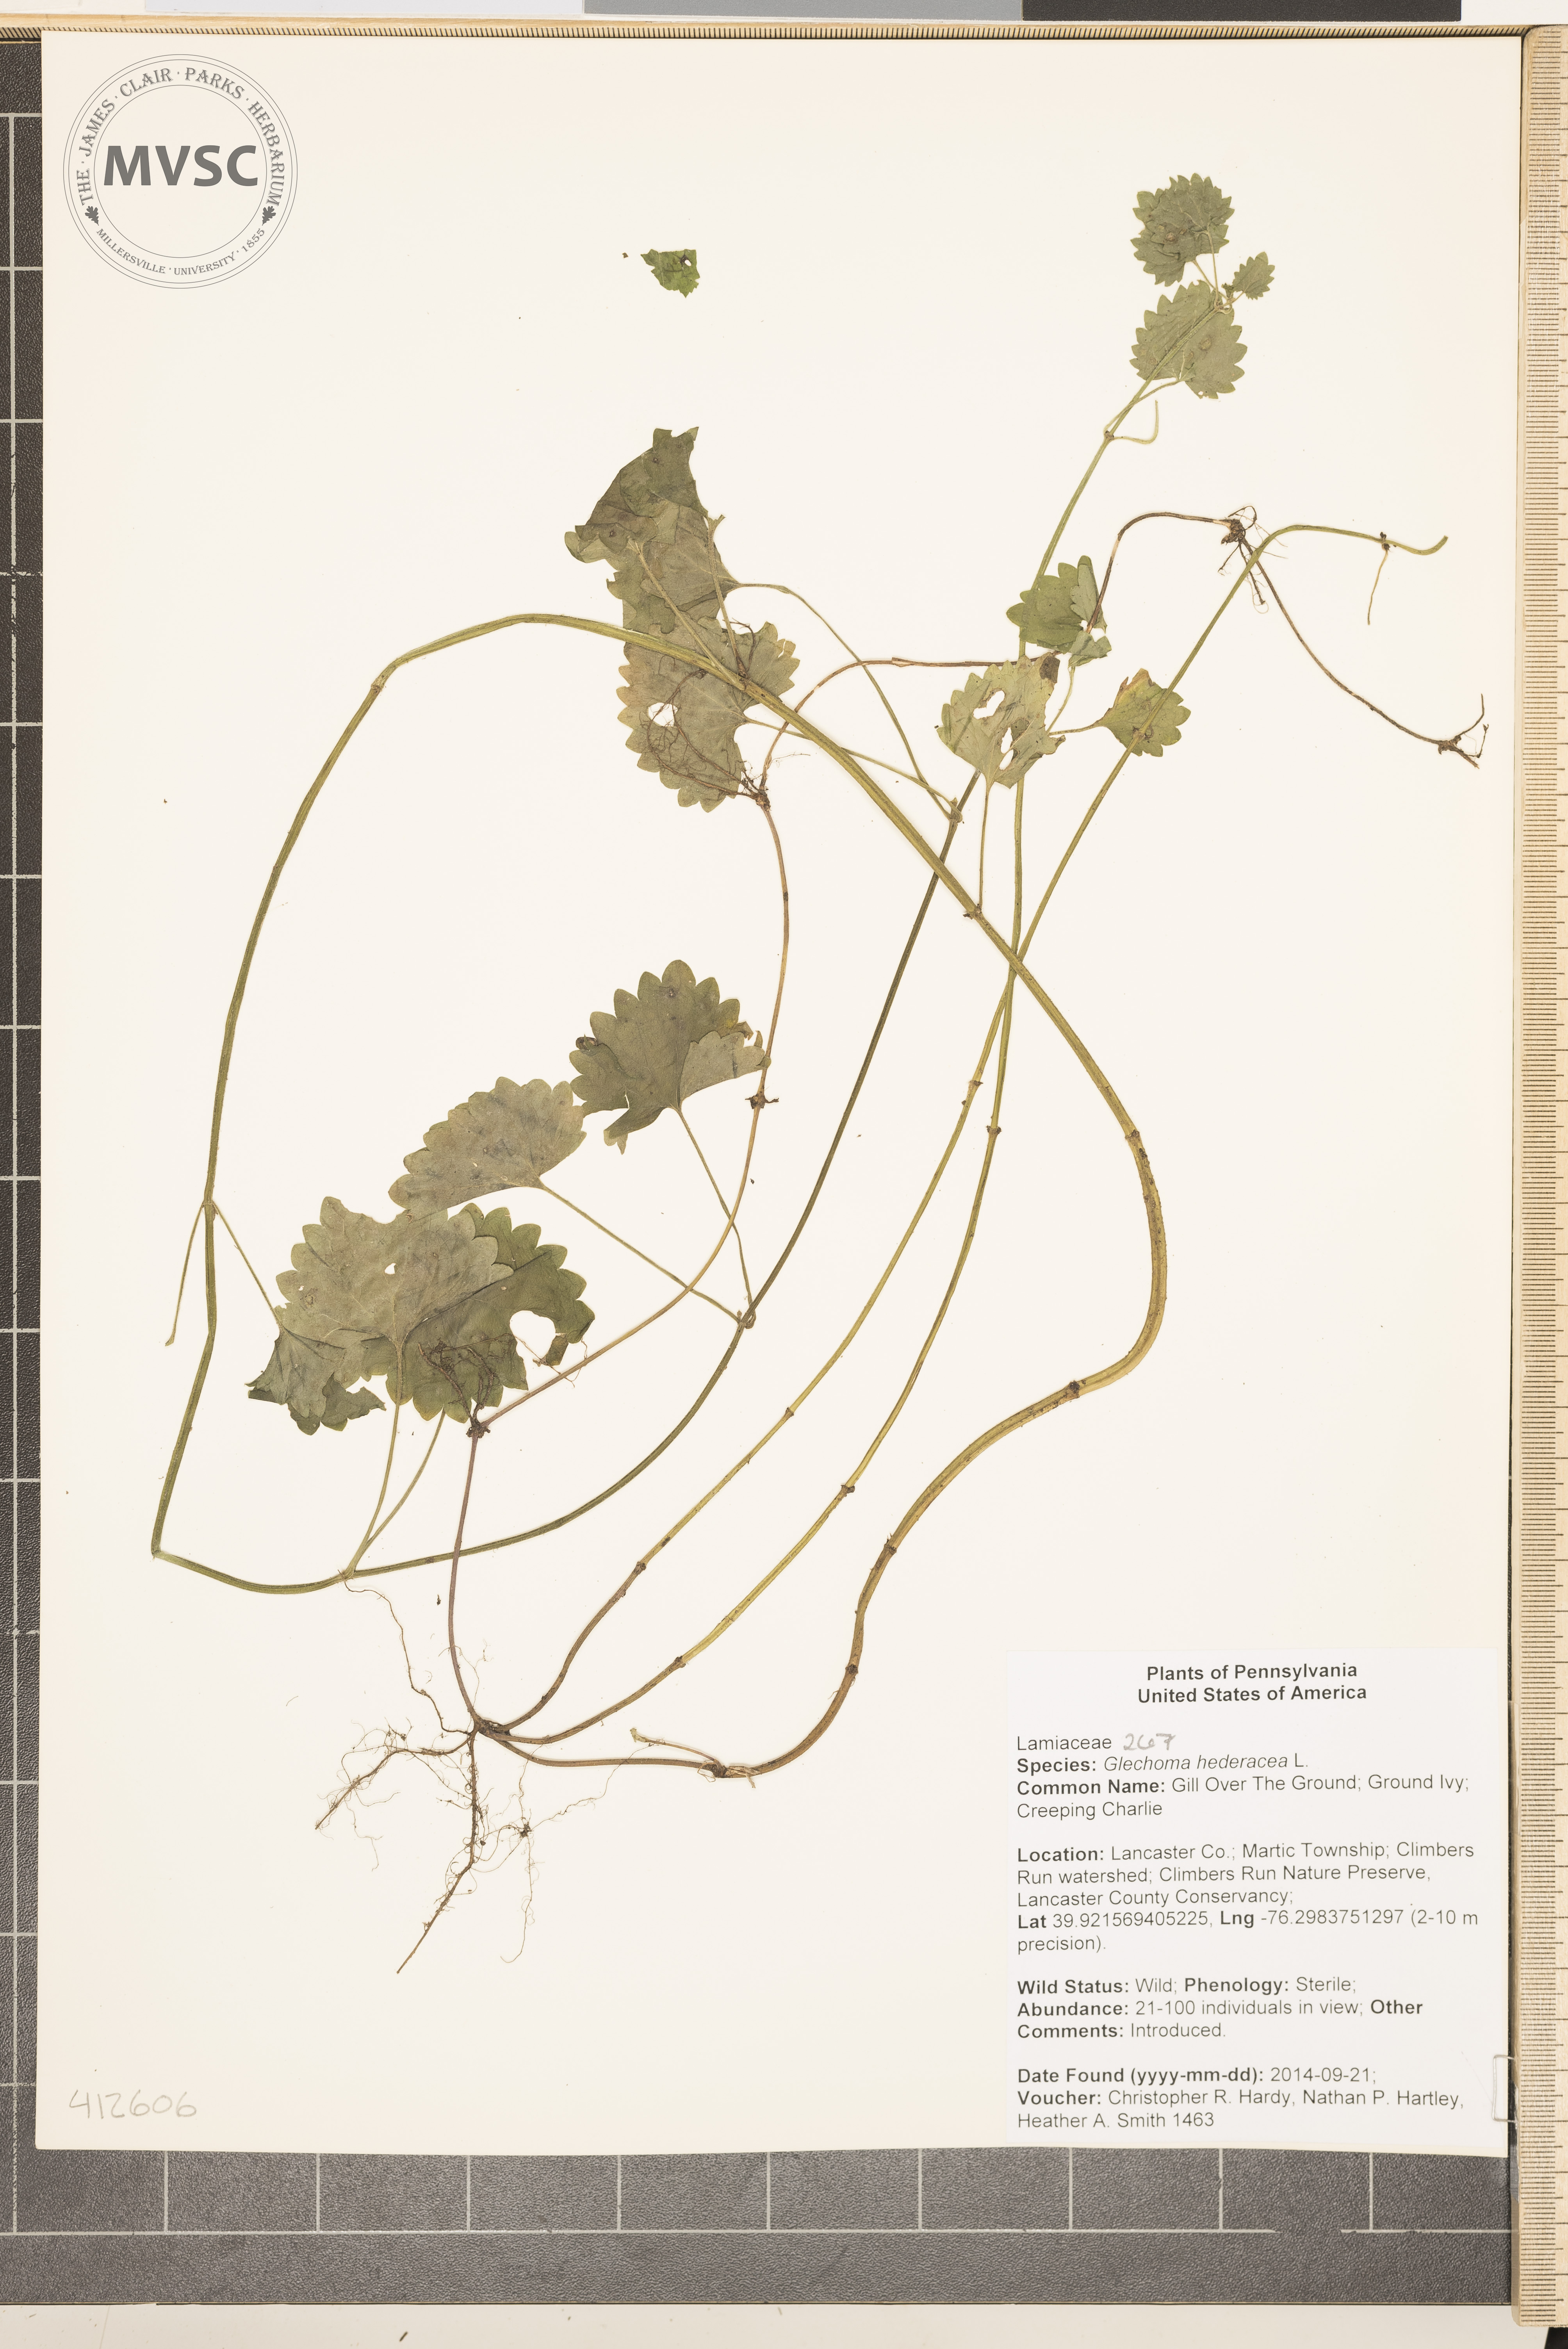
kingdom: Plantae
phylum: Tracheophyta
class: Magnoliopsida
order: Lamiales
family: Lamiaceae
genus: Glechoma
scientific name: Glechoma hederacea
